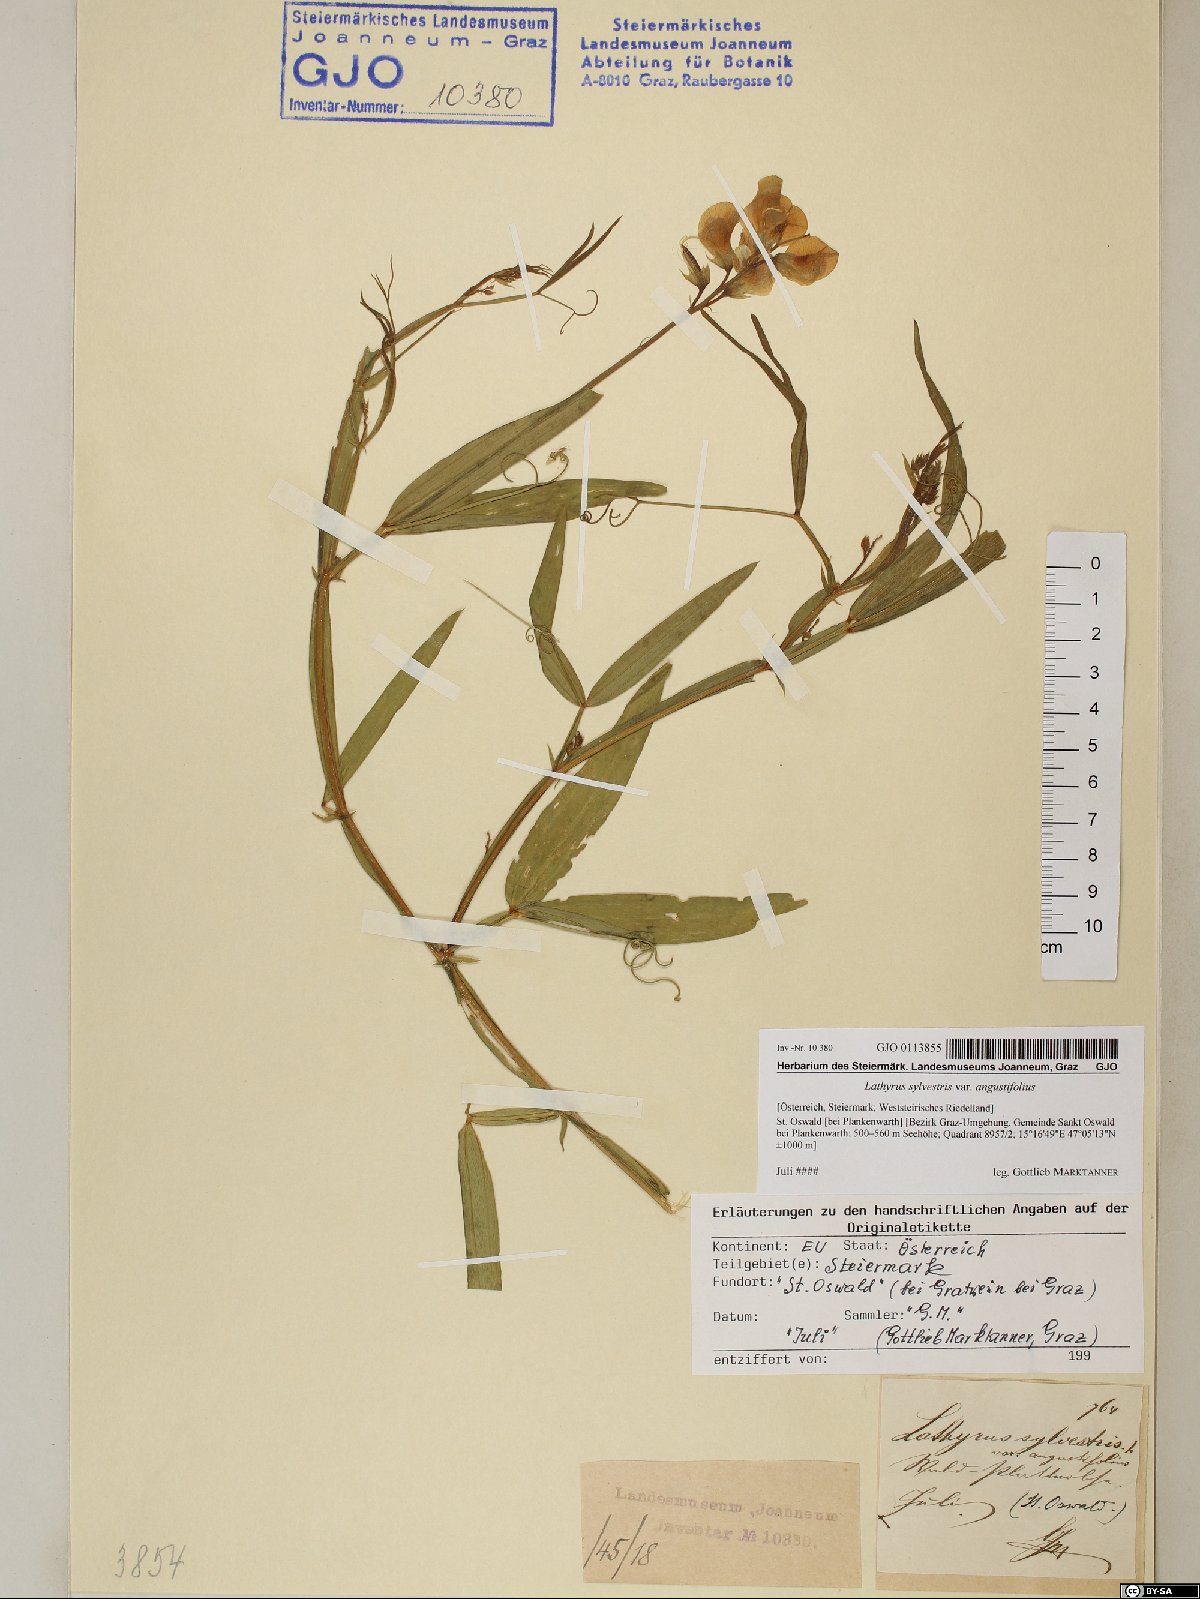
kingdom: Plantae
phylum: Tracheophyta
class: Magnoliopsida
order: Fabales
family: Fabaceae
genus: Lathyrus
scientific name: Lathyrus sylvestris
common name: Flat pea
